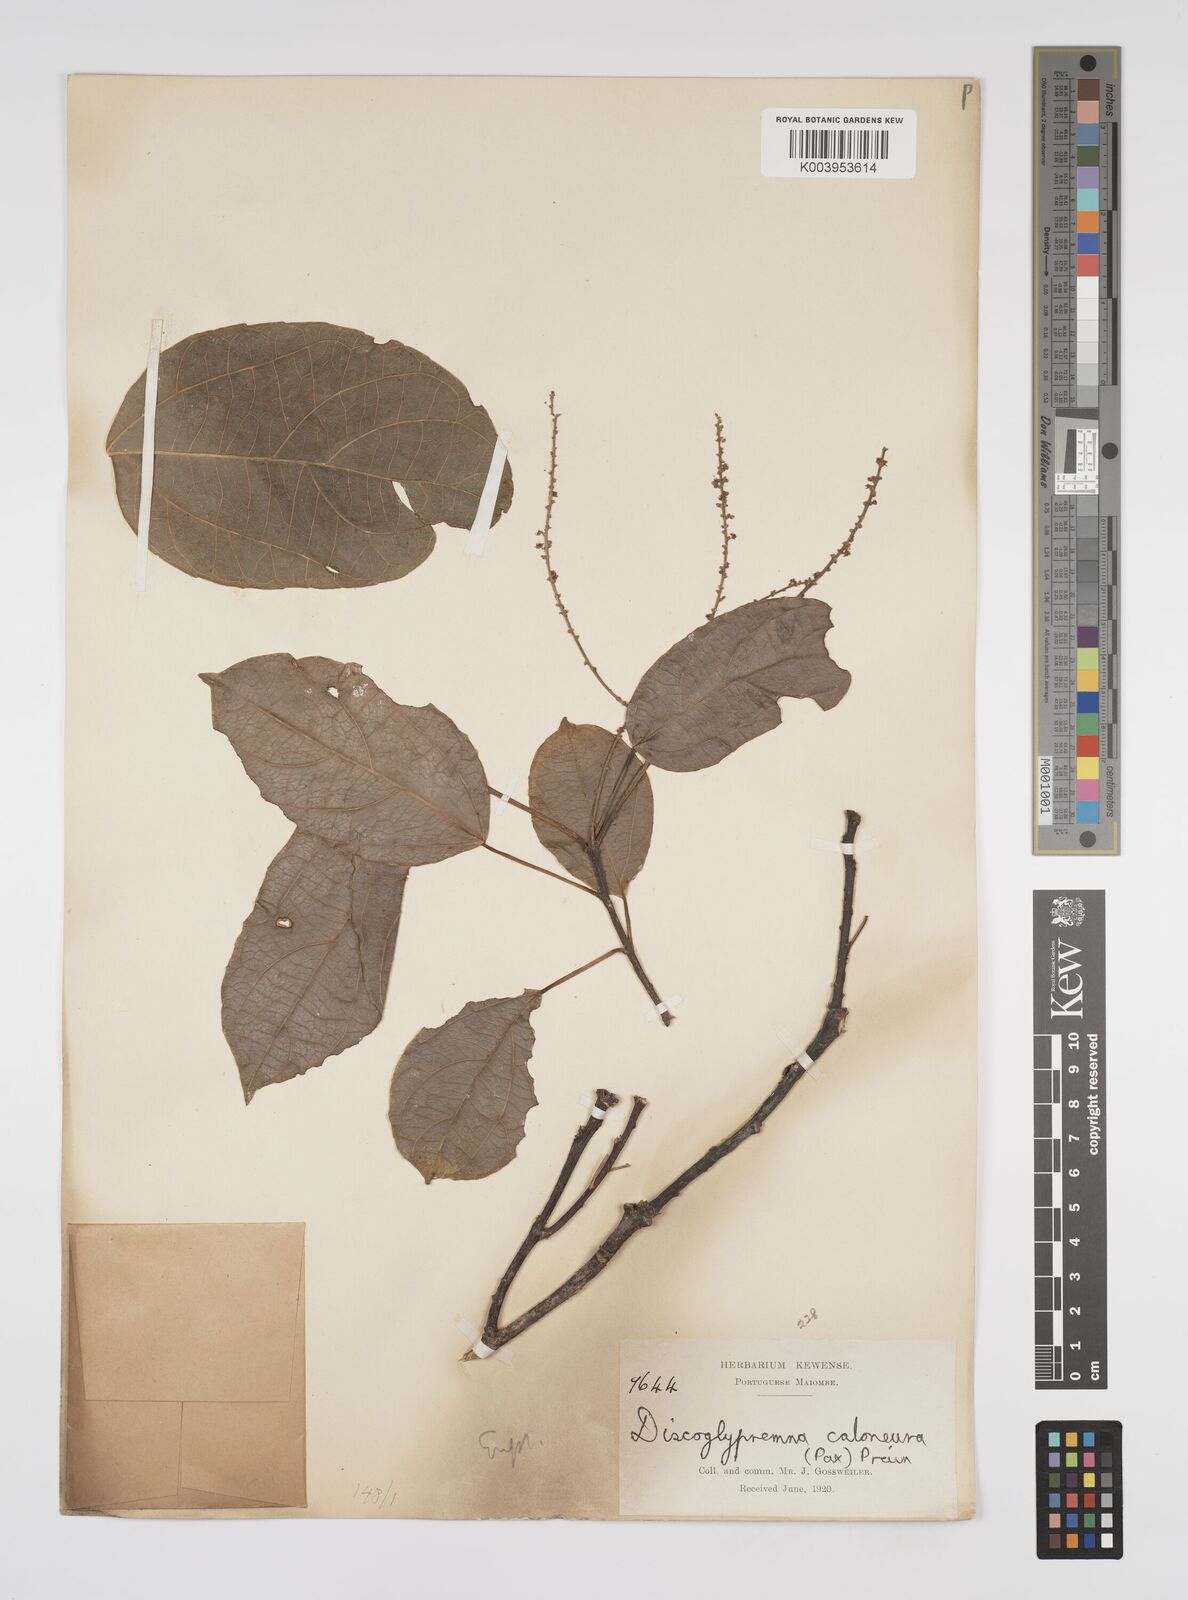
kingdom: Plantae
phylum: Tracheophyta
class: Magnoliopsida
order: Malpighiales
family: Euphorbiaceae
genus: Discoglypremna
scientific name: Discoglypremna caloneura
